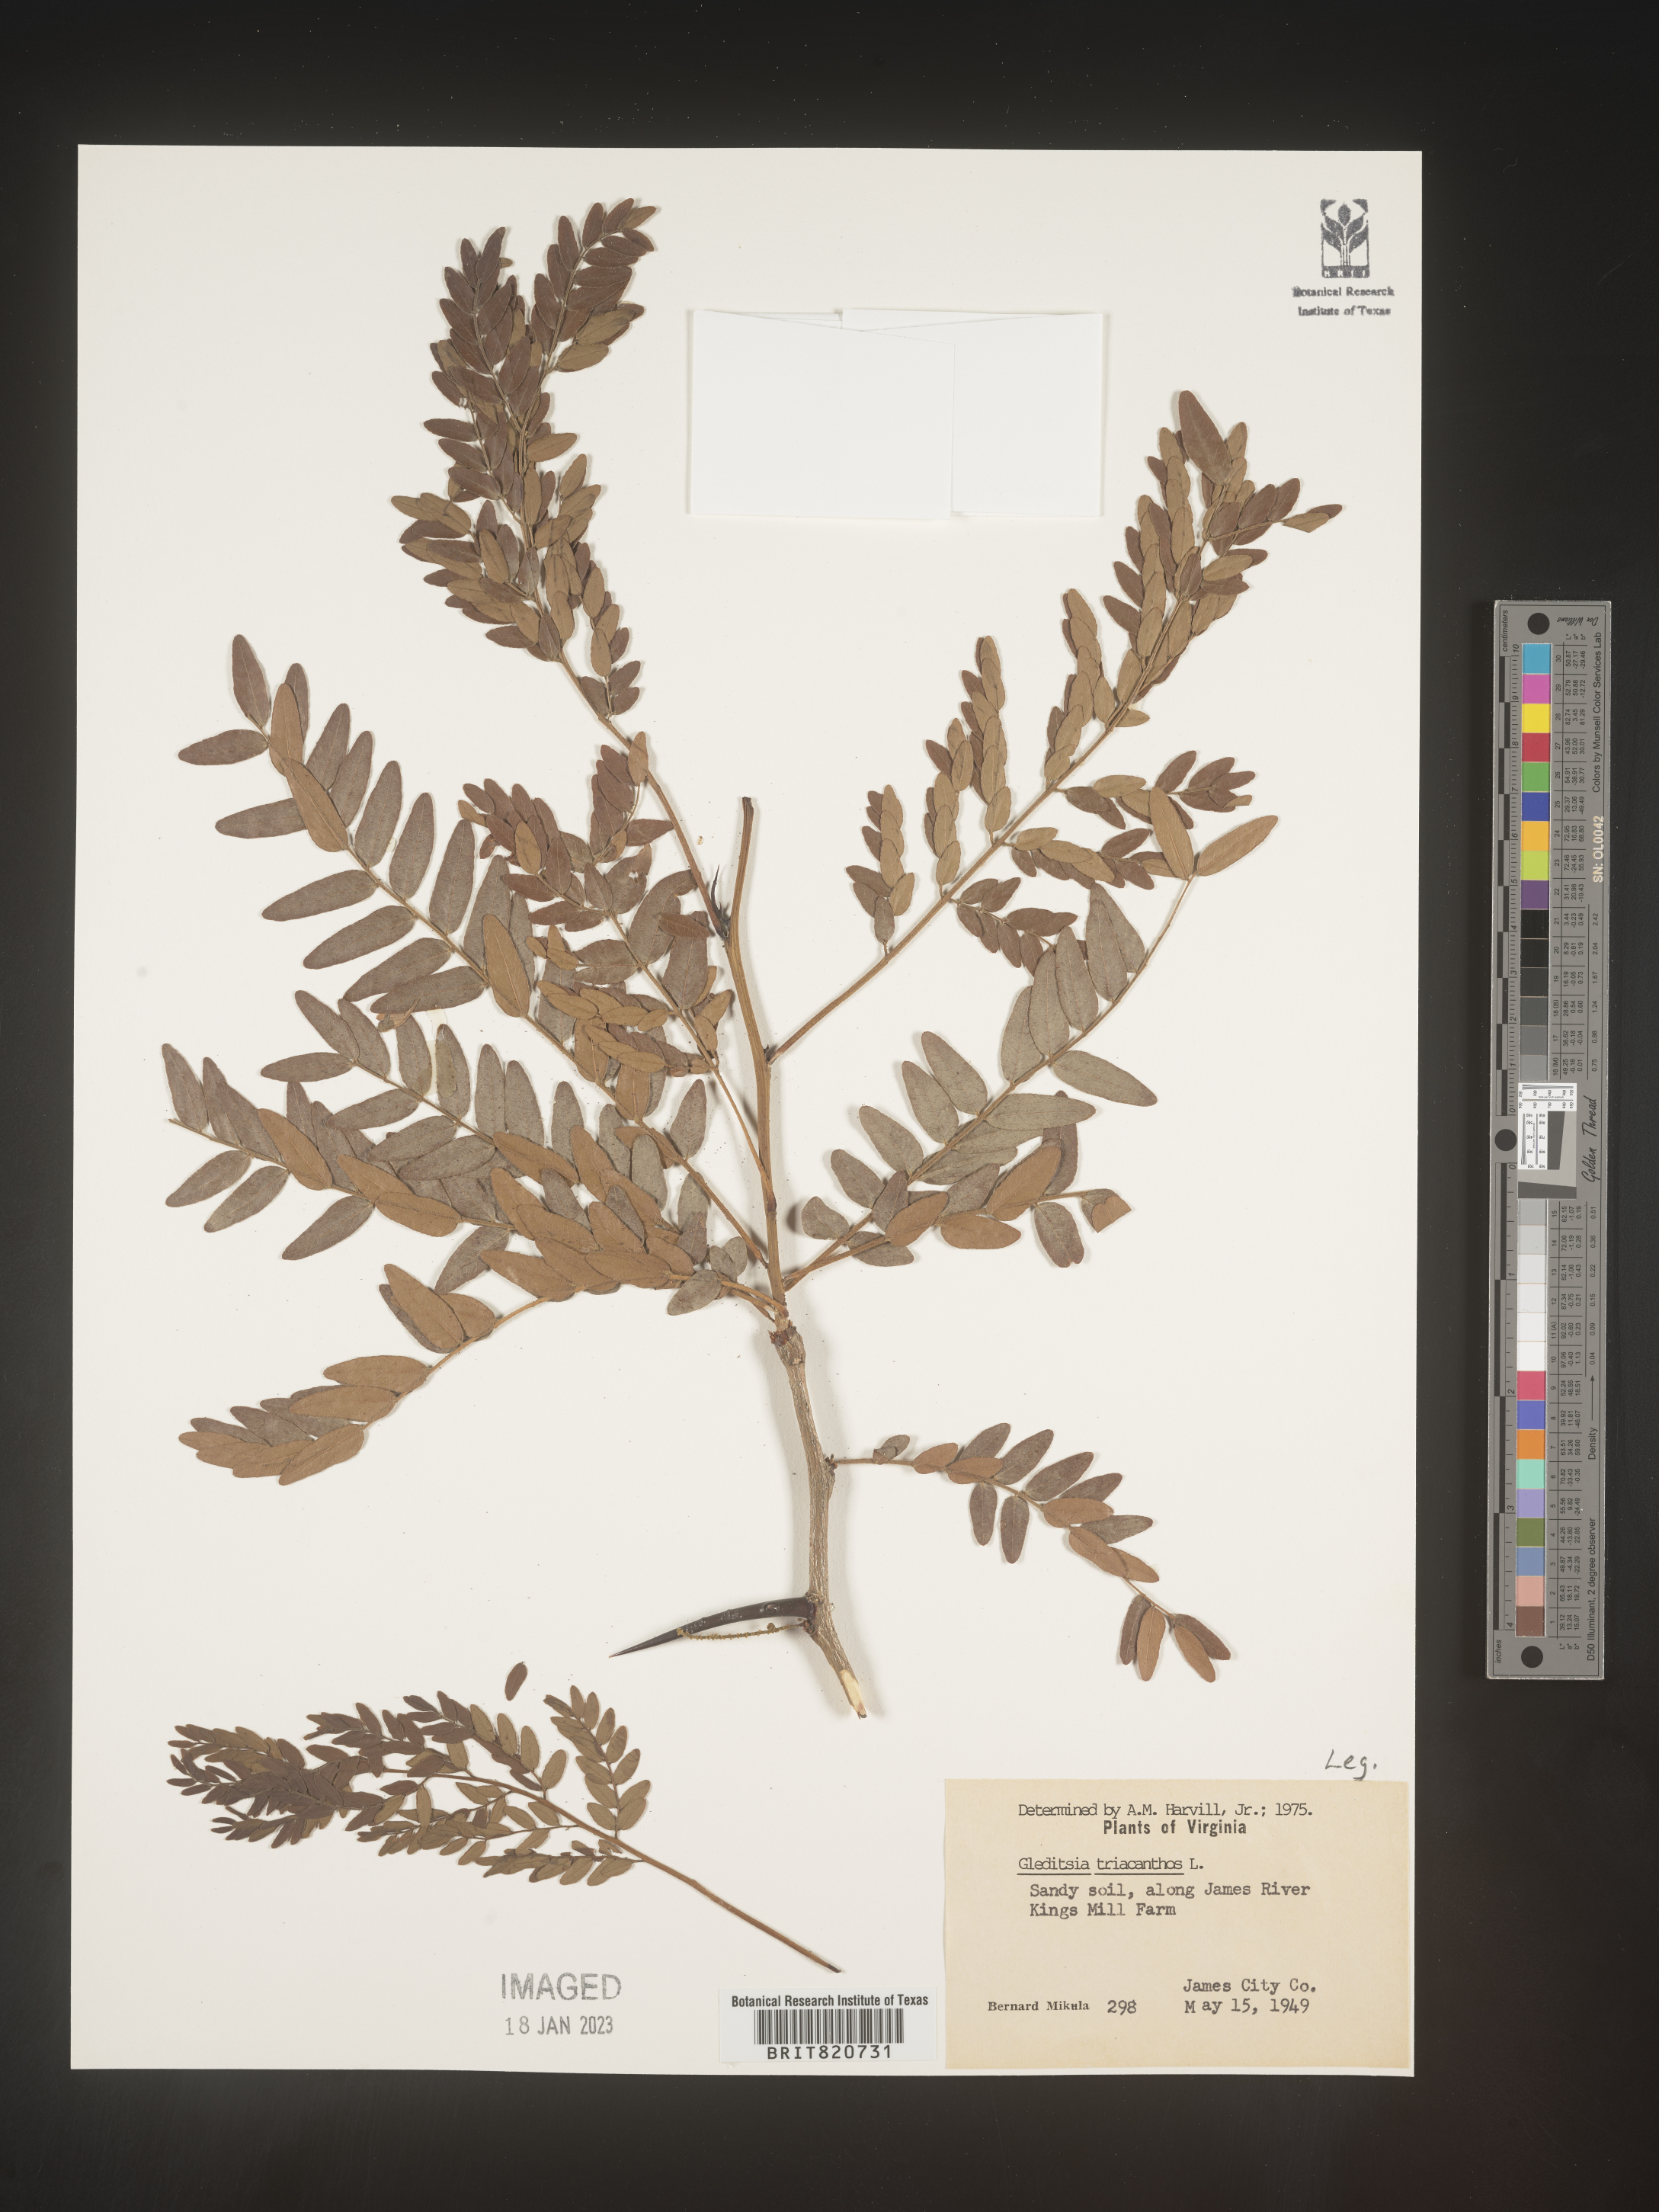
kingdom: Plantae
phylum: Tracheophyta
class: Magnoliopsida
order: Fabales
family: Fabaceae
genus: Gleditsia
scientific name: Gleditsia triacanthos
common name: Common honeylocust
